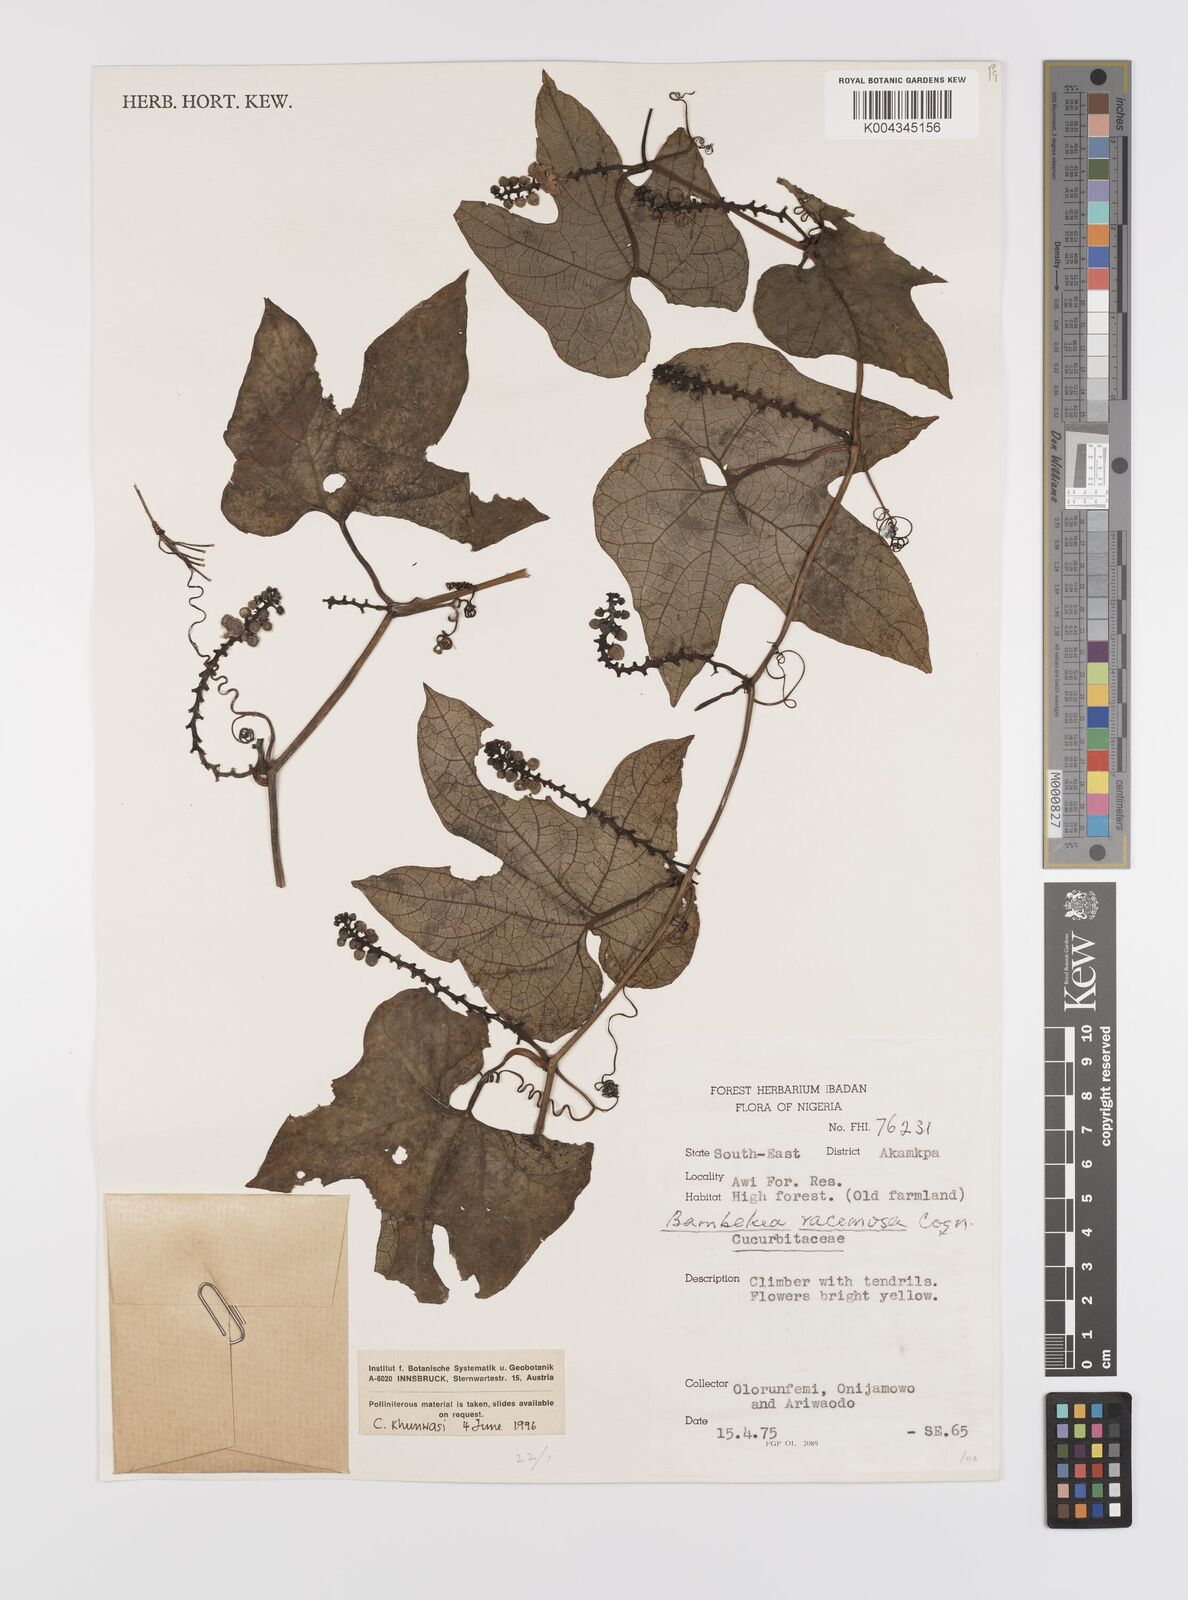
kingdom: Plantae
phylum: Tracheophyta
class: Magnoliopsida
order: Cucurbitales
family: Cucurbitaceae
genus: Bambekea
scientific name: Bambekea racemosa
